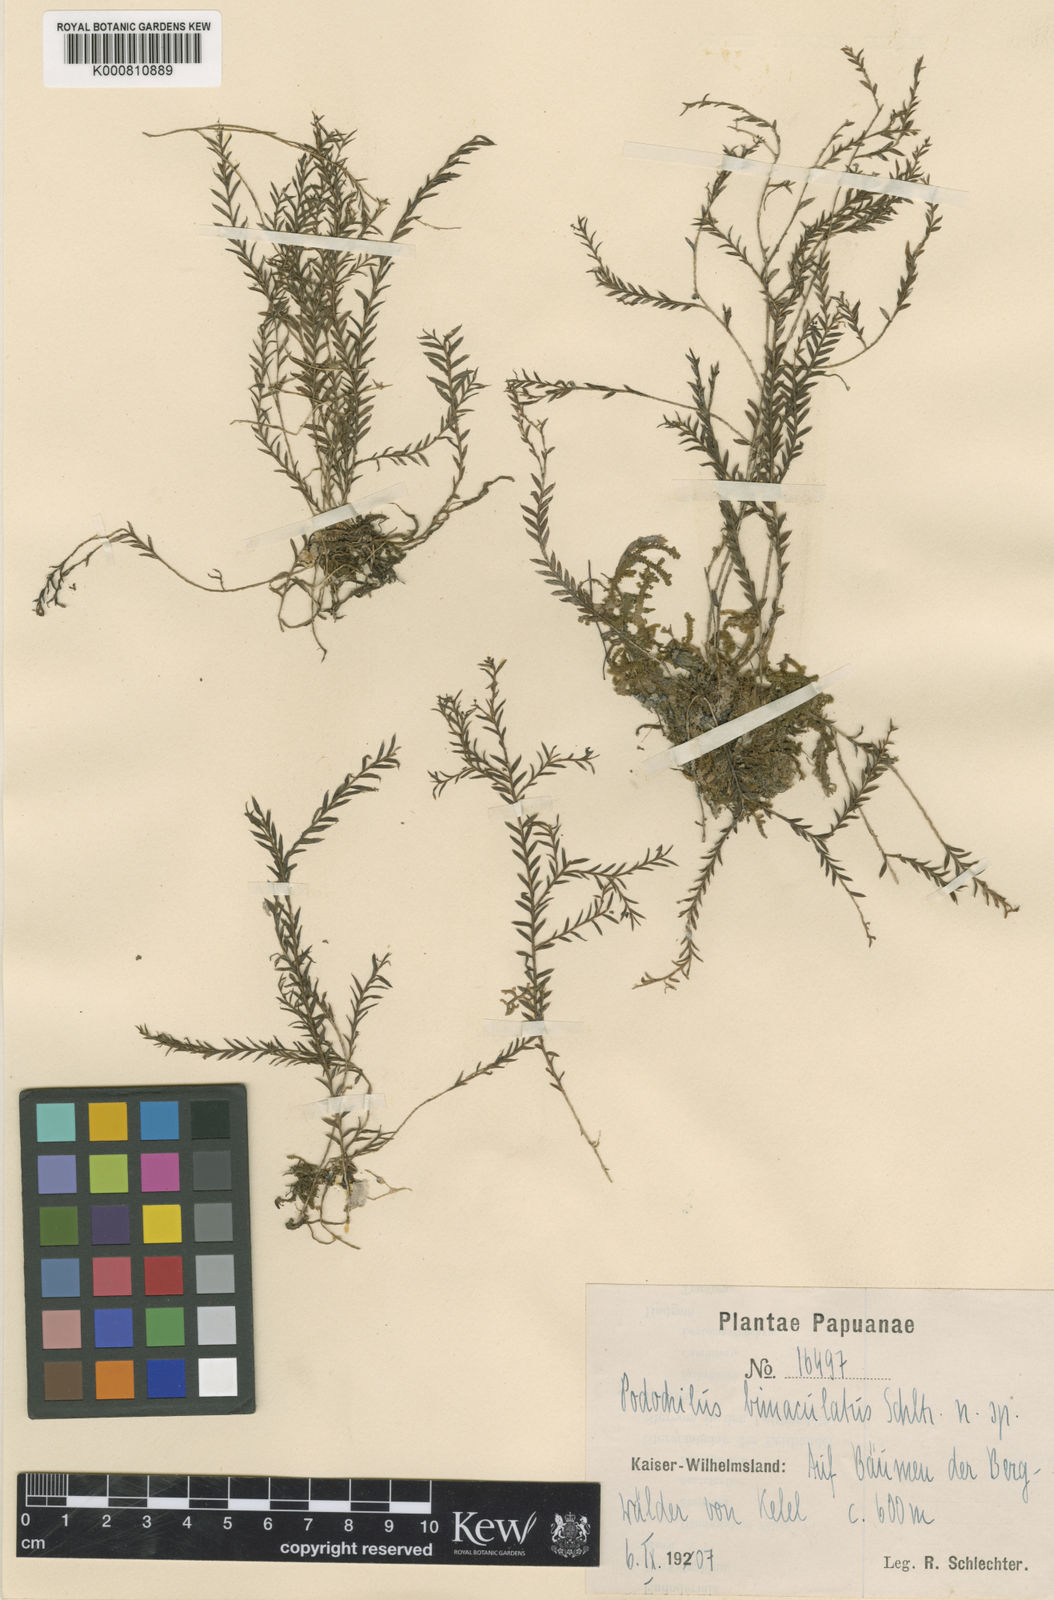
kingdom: Plantae
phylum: Tracheophyta
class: Liliopsida
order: Asparagales
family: Orchidaceae
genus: Podochilus
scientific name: Podochilus hellwigii
